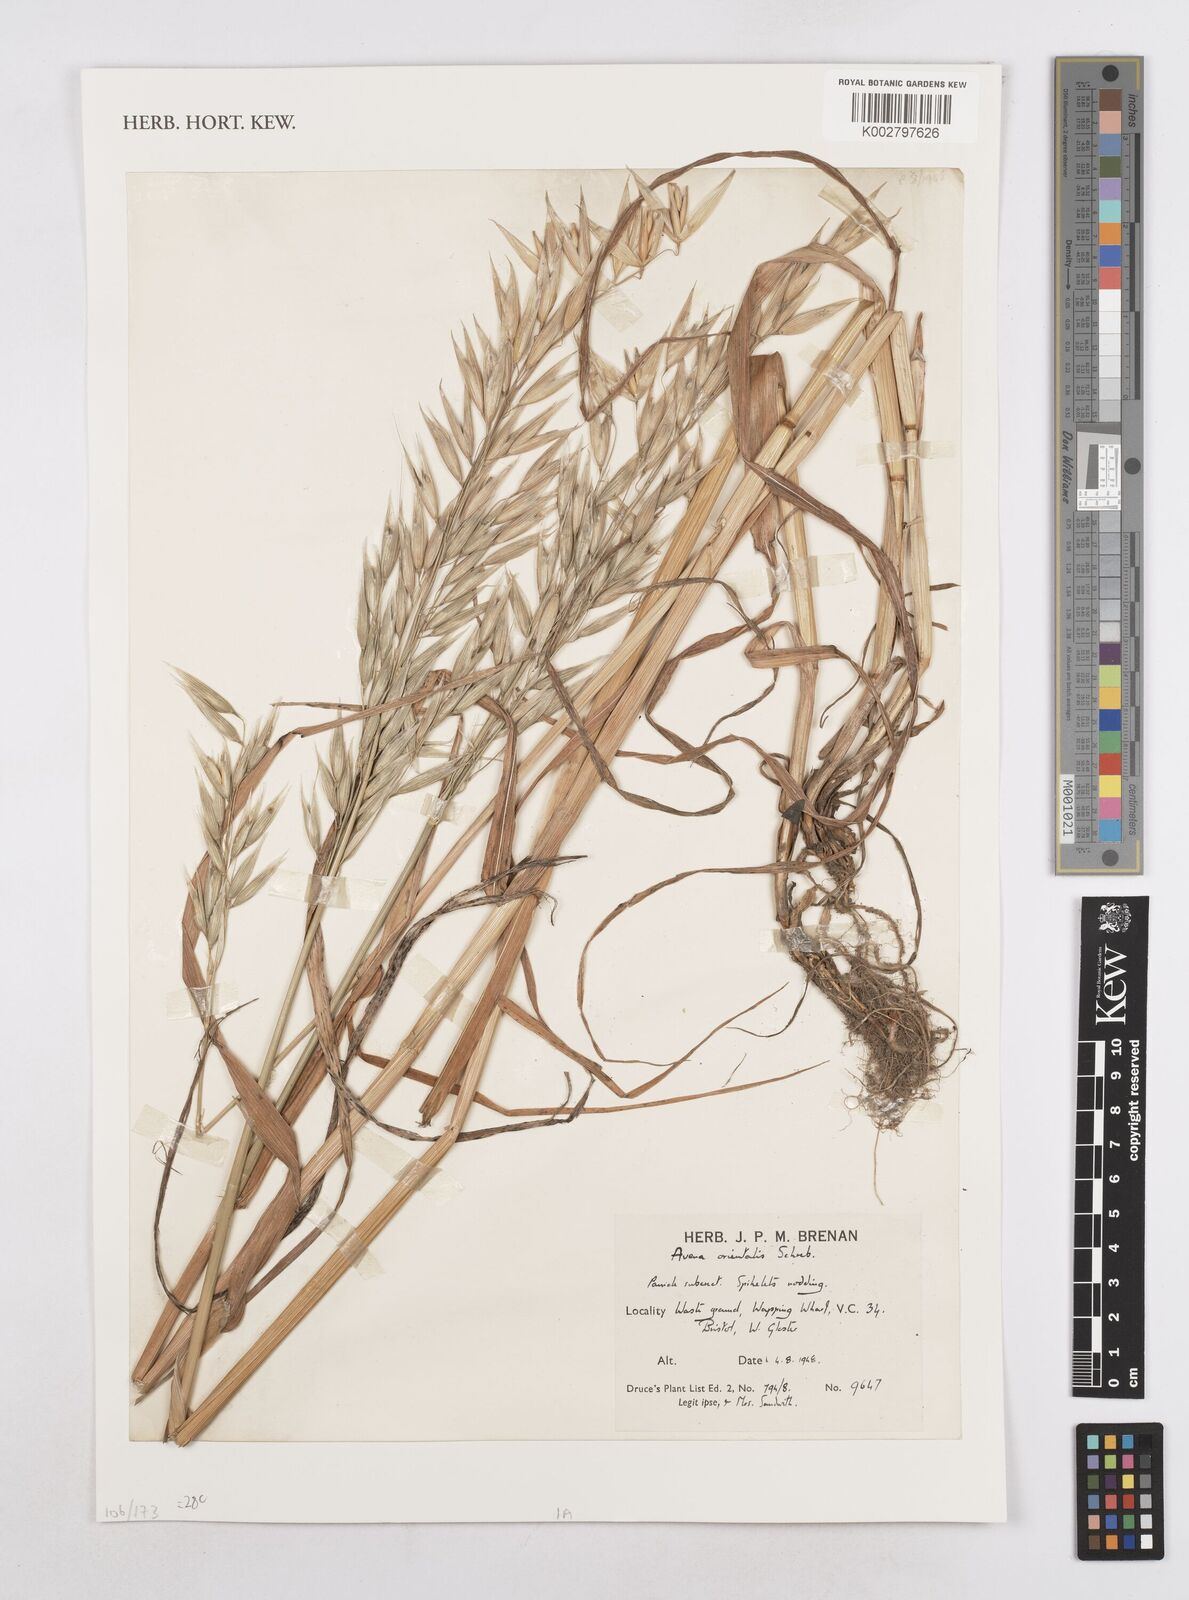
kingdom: Plantae
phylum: Tracheophyta
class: Liliopsida
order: Poales
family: Poaceae
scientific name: Poaceae
